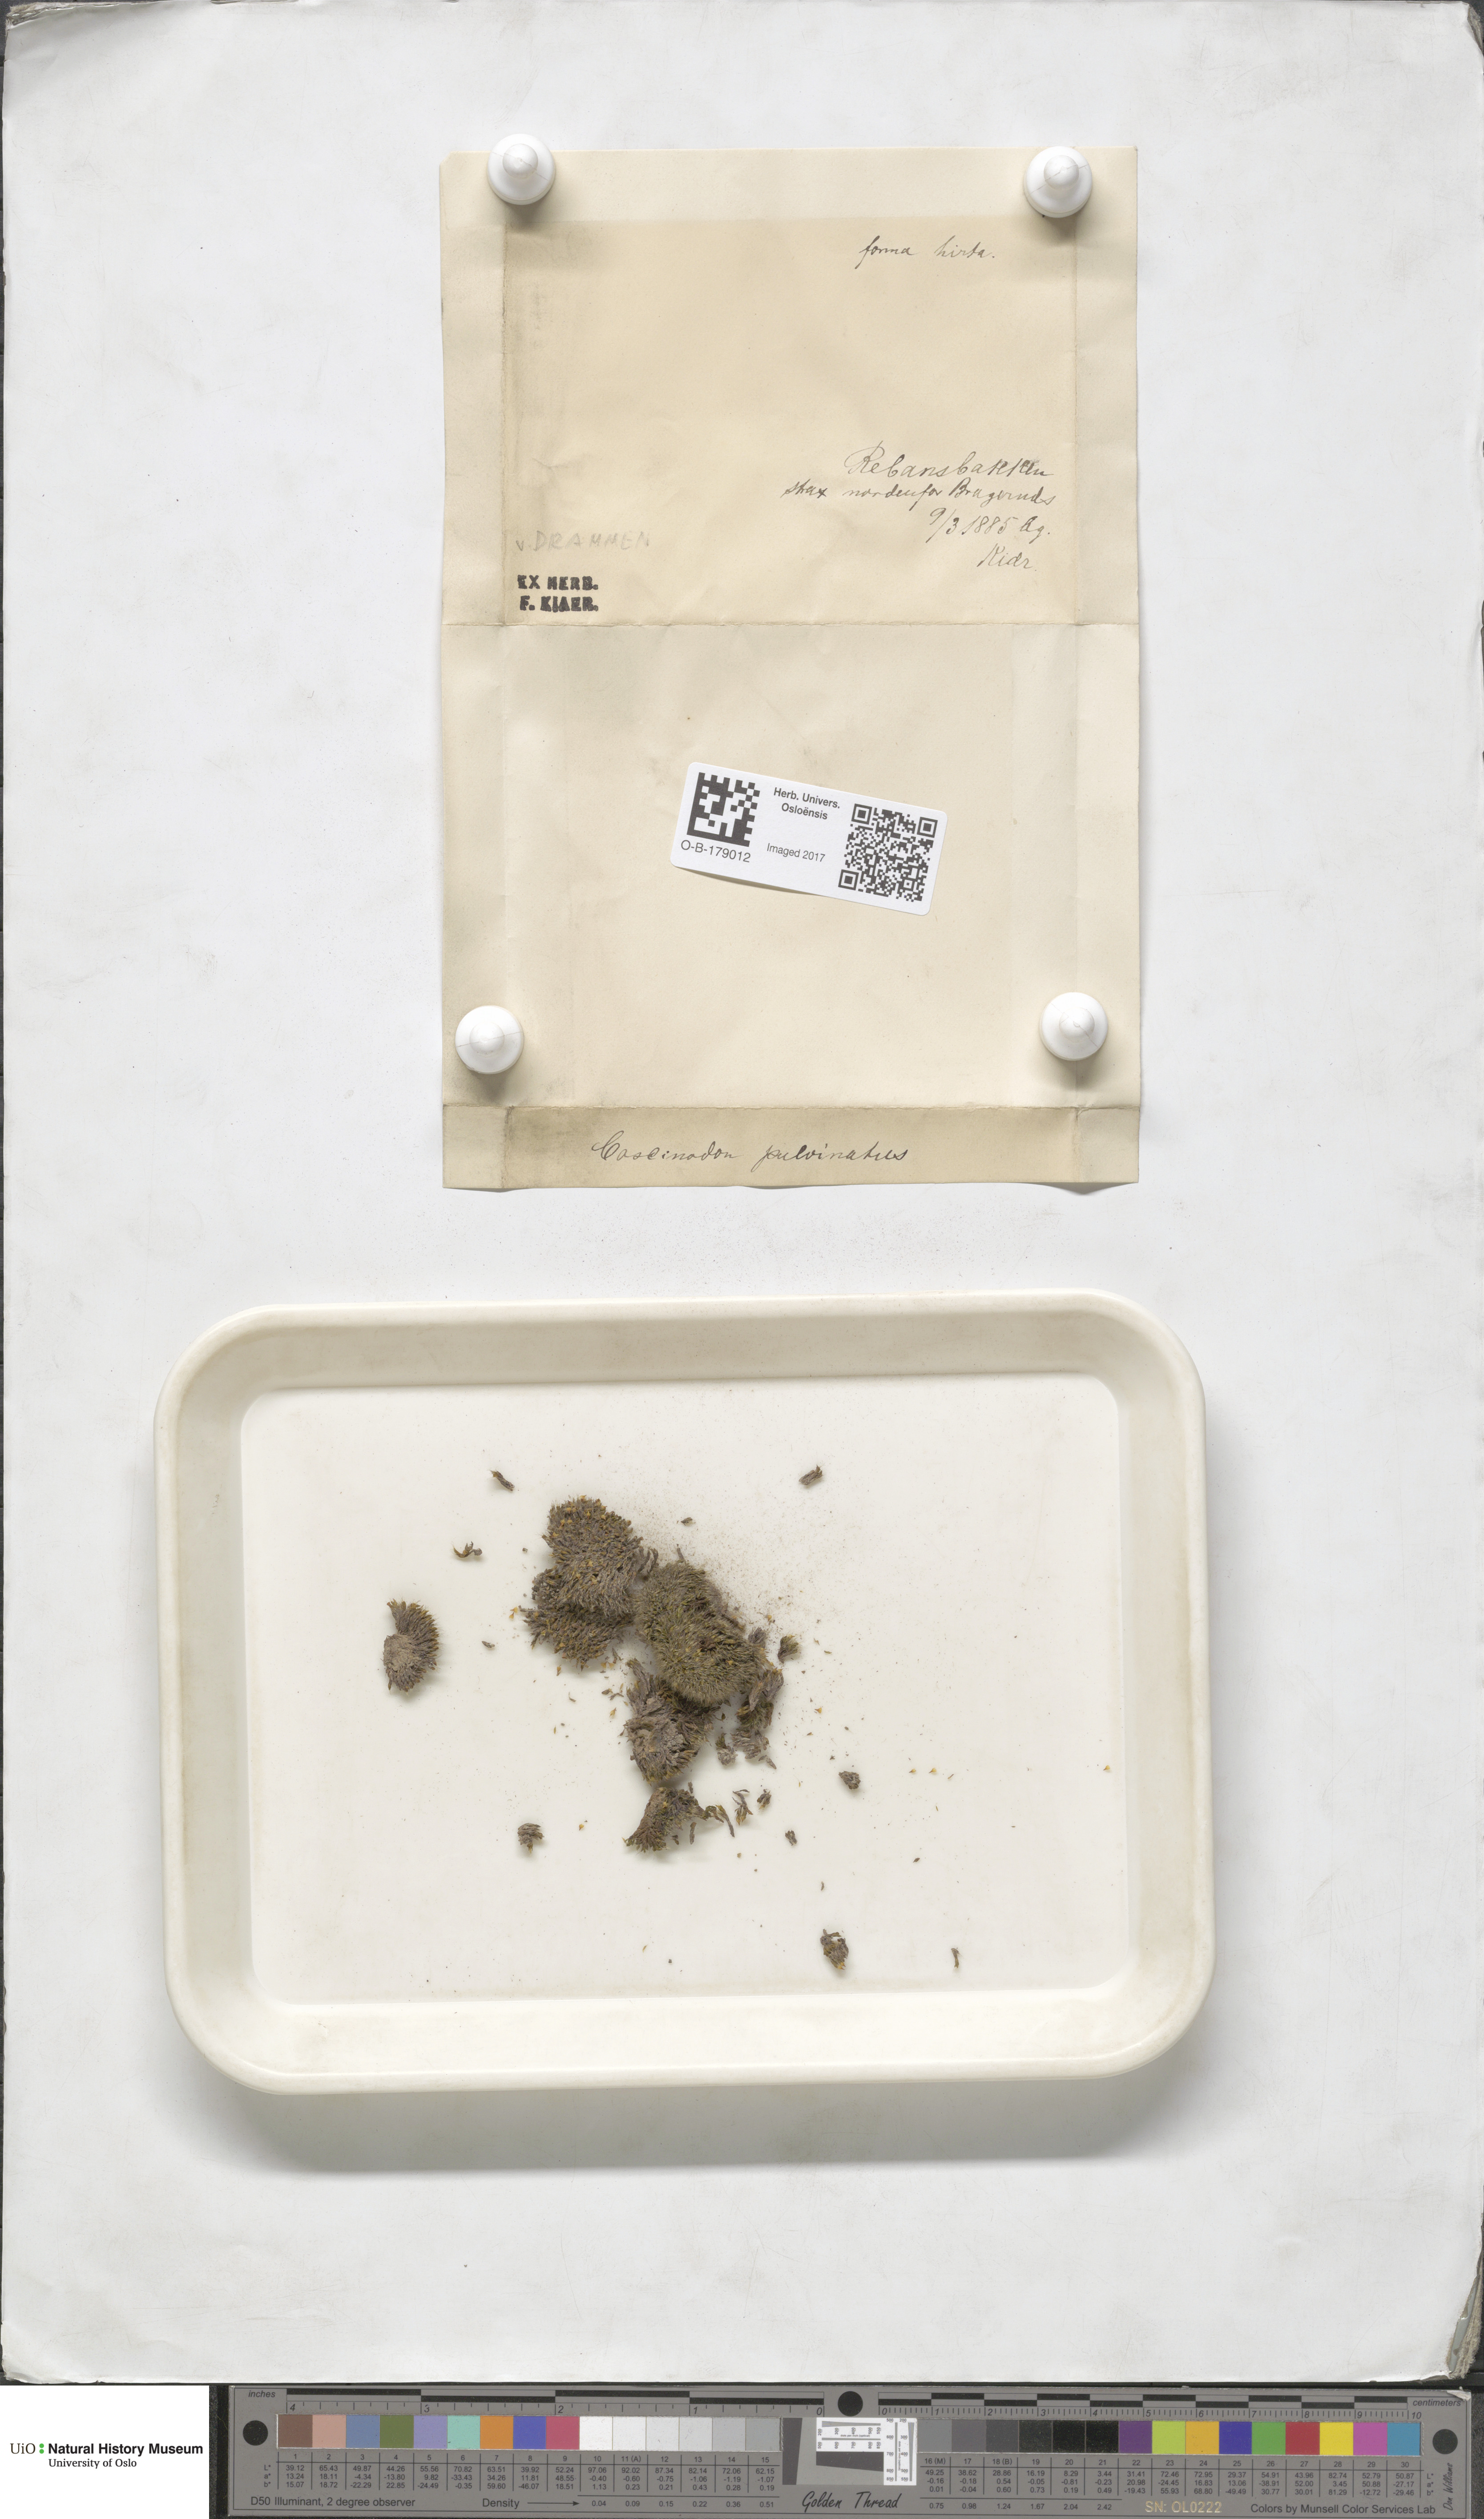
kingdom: Plantae
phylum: Bryophyta
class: Bryopsida
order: Bartramiales
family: Bartramiaceae
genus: Conostomum
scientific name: Conostomum tetragonum
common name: Helmet moss
